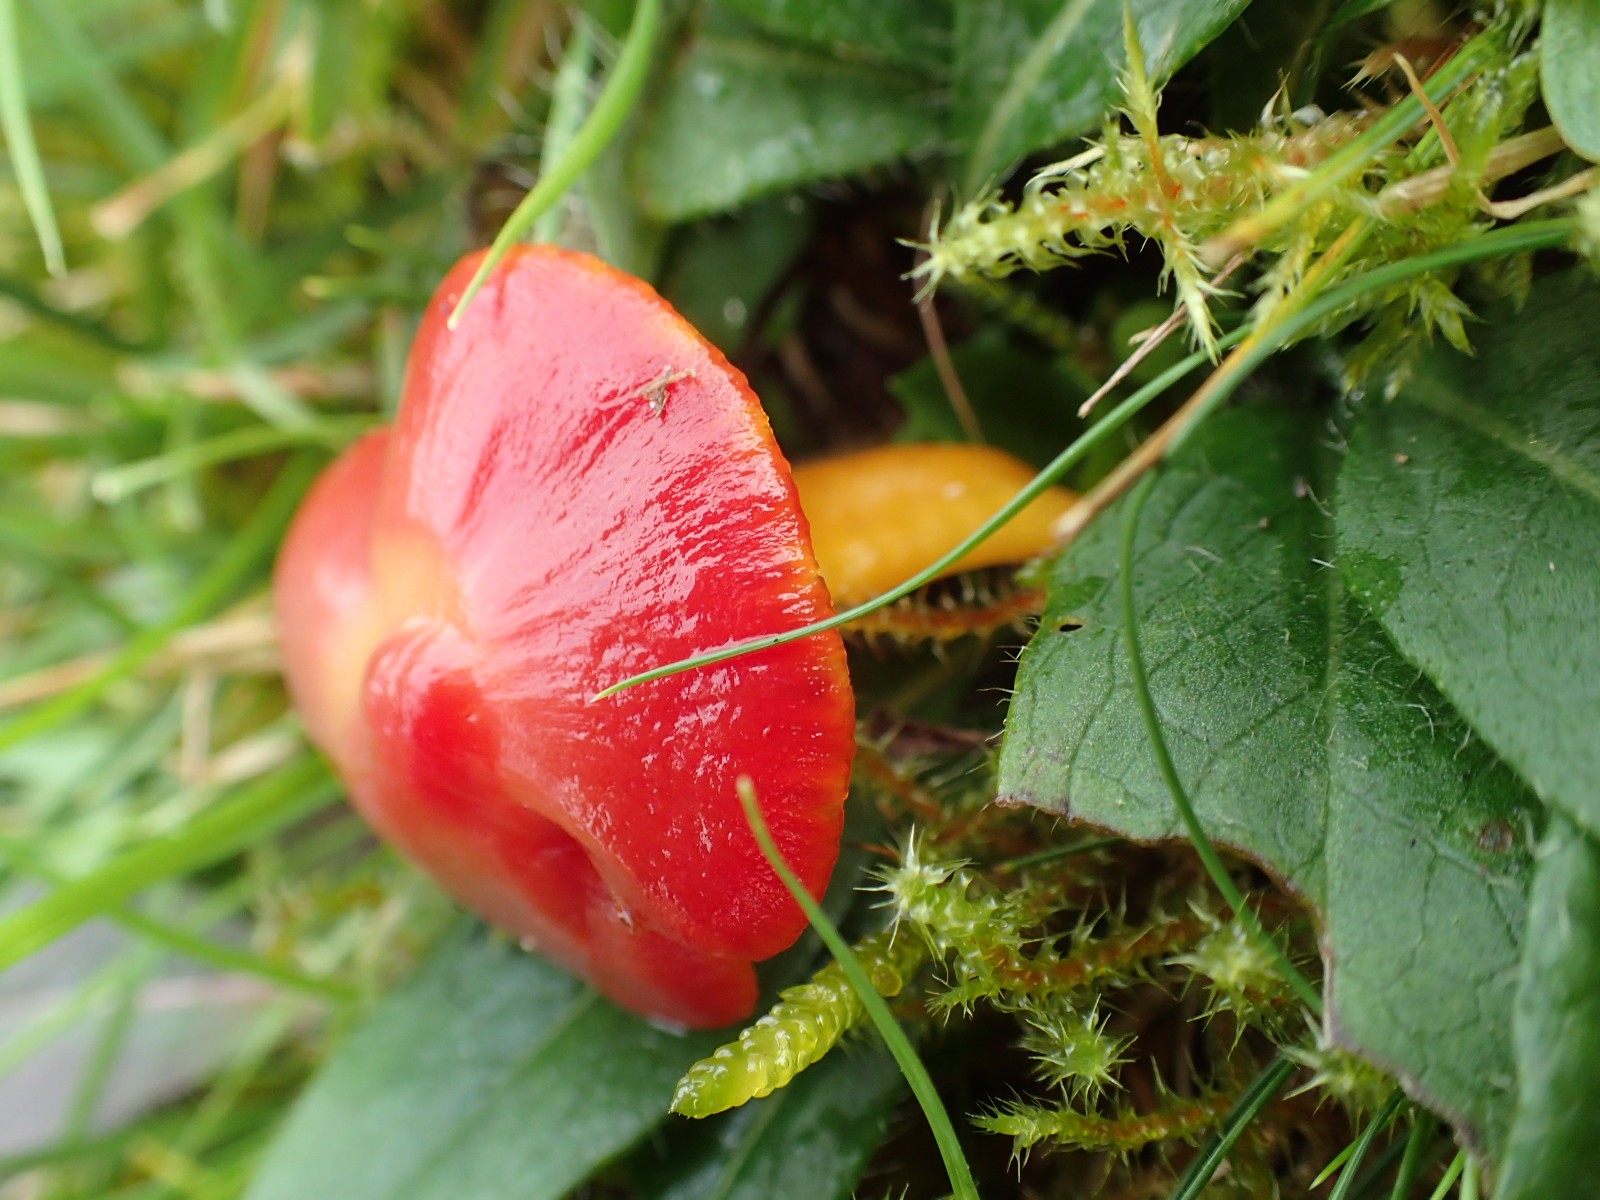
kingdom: Fungi
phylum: Basidiomycota
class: Agaricomycetes
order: Agaricales
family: Hygrophoraceae
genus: Hygrocybe
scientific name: Hygrocybe coccinea
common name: cinnober-vokshat
